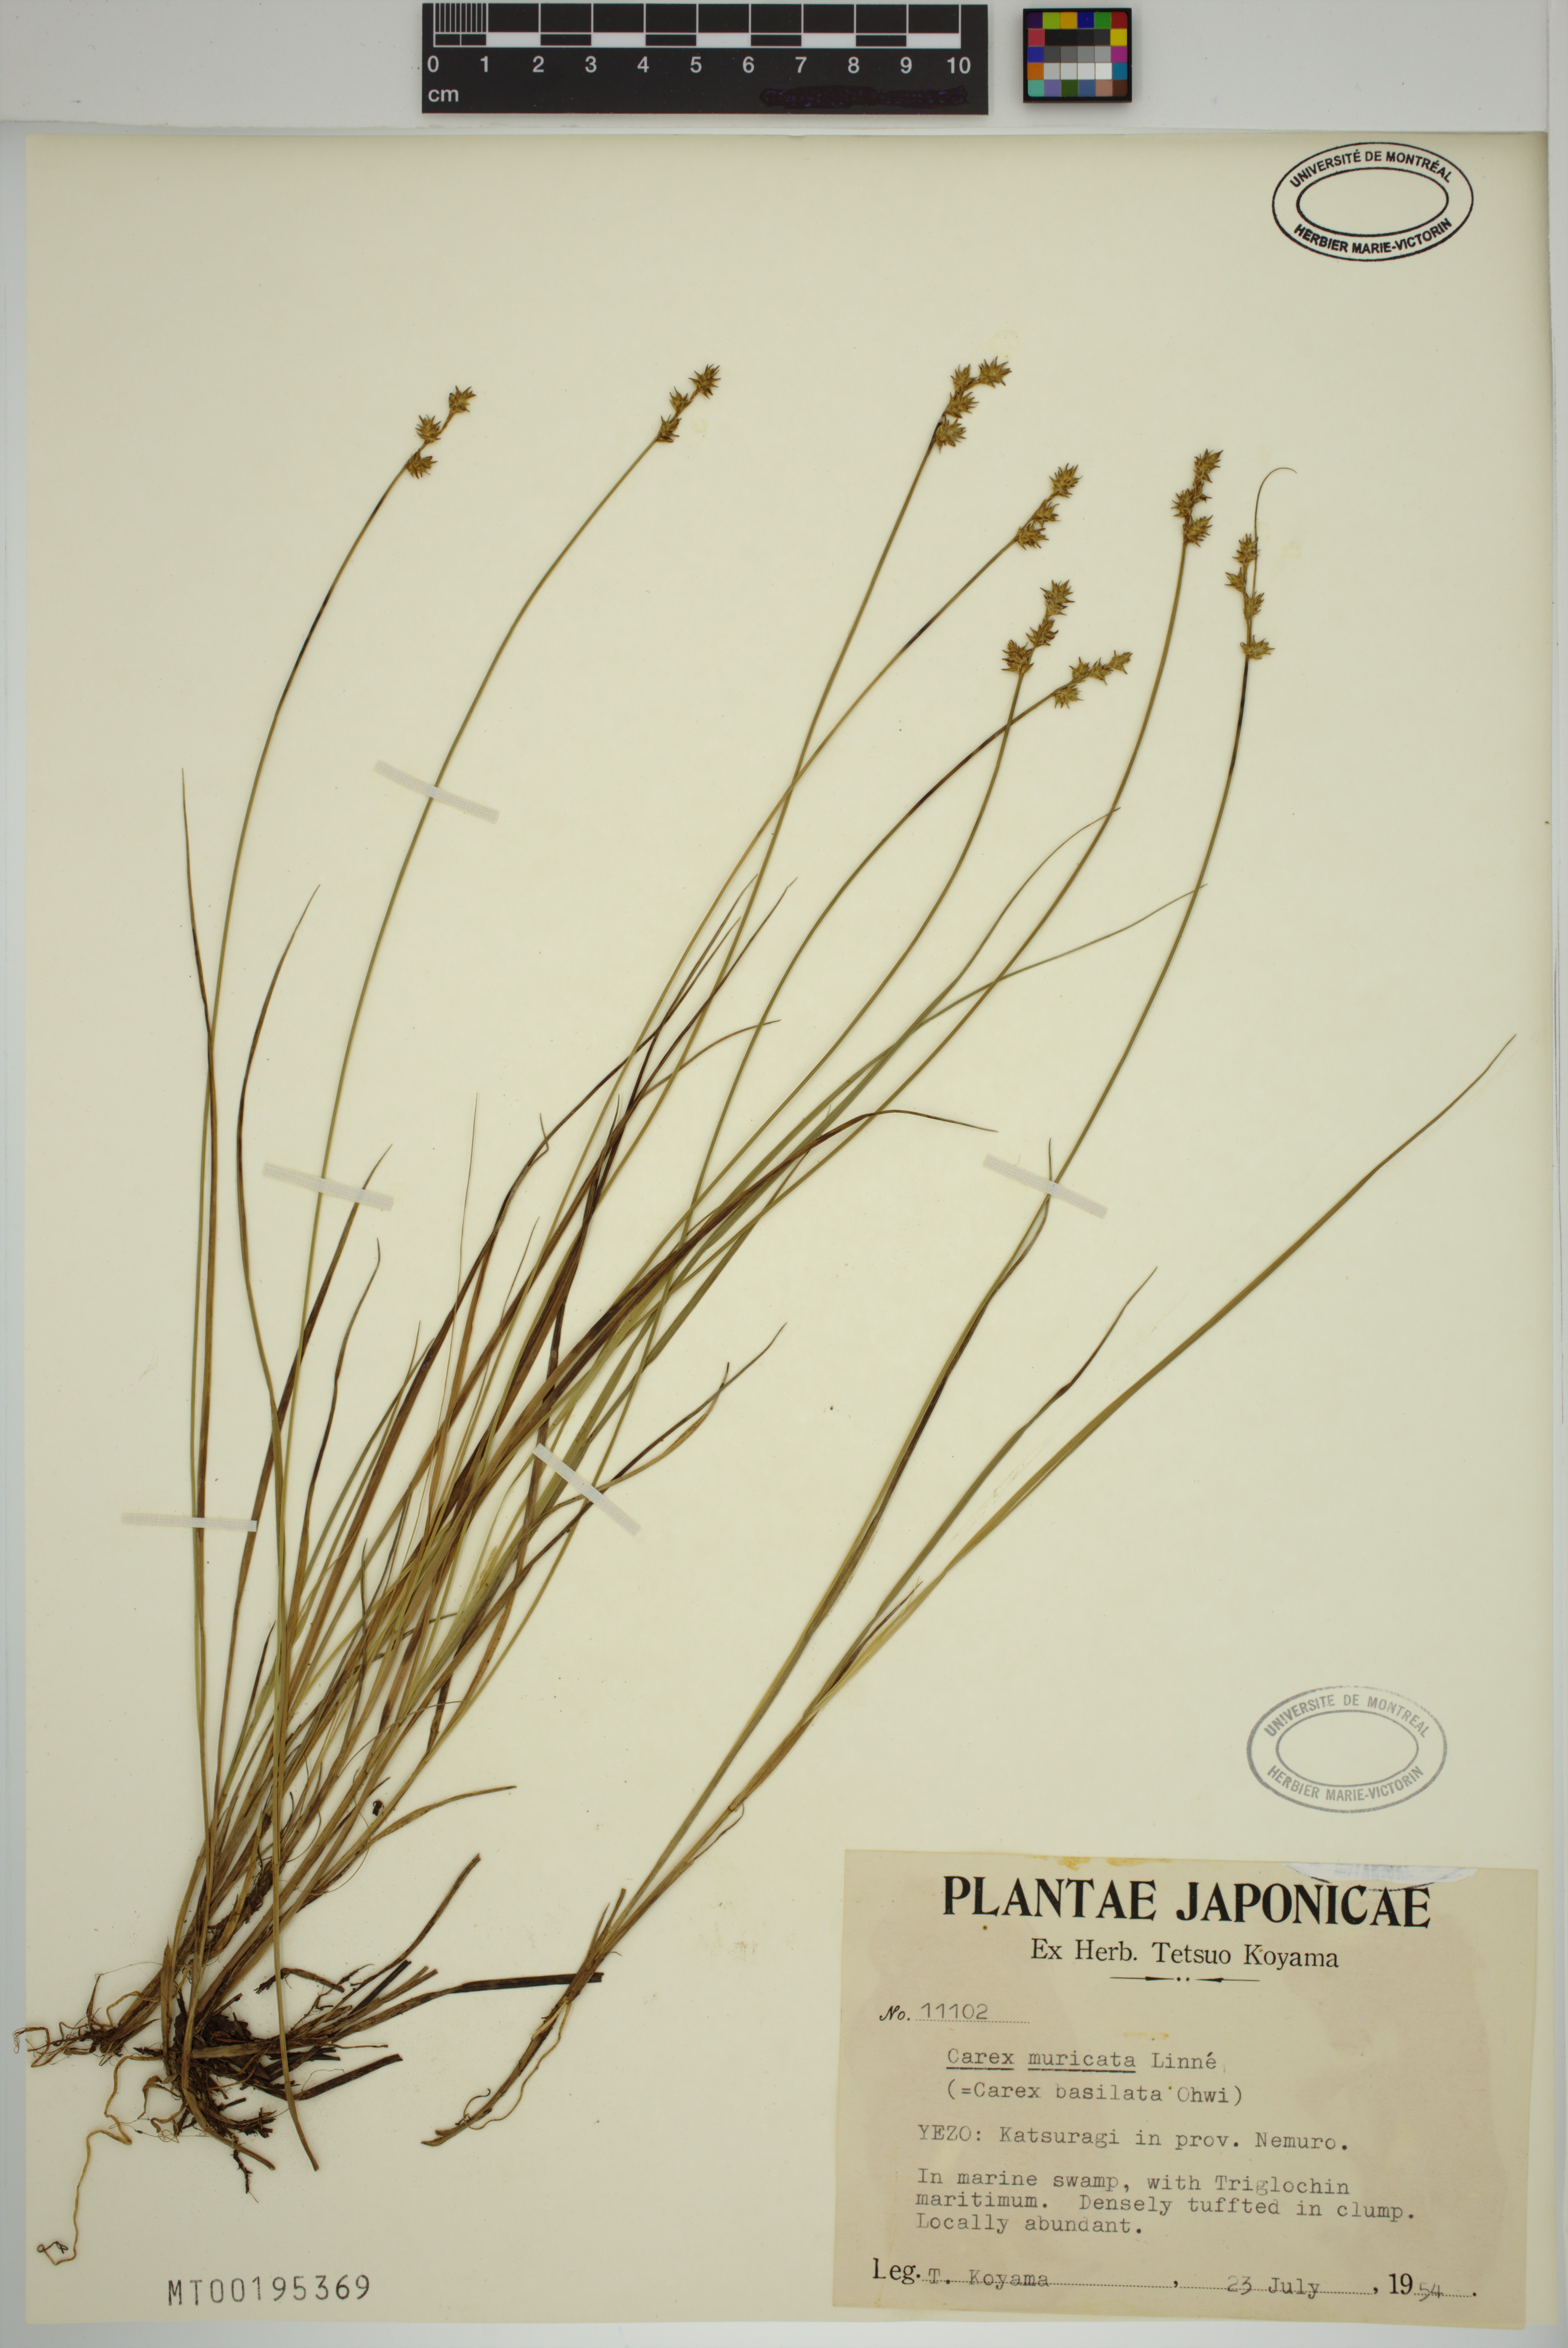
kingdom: Plantae
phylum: Tracheophyta
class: Liliopsida
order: Poales
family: Cyperaceae
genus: Carex
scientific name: Carex muricata
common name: Rough sedge
